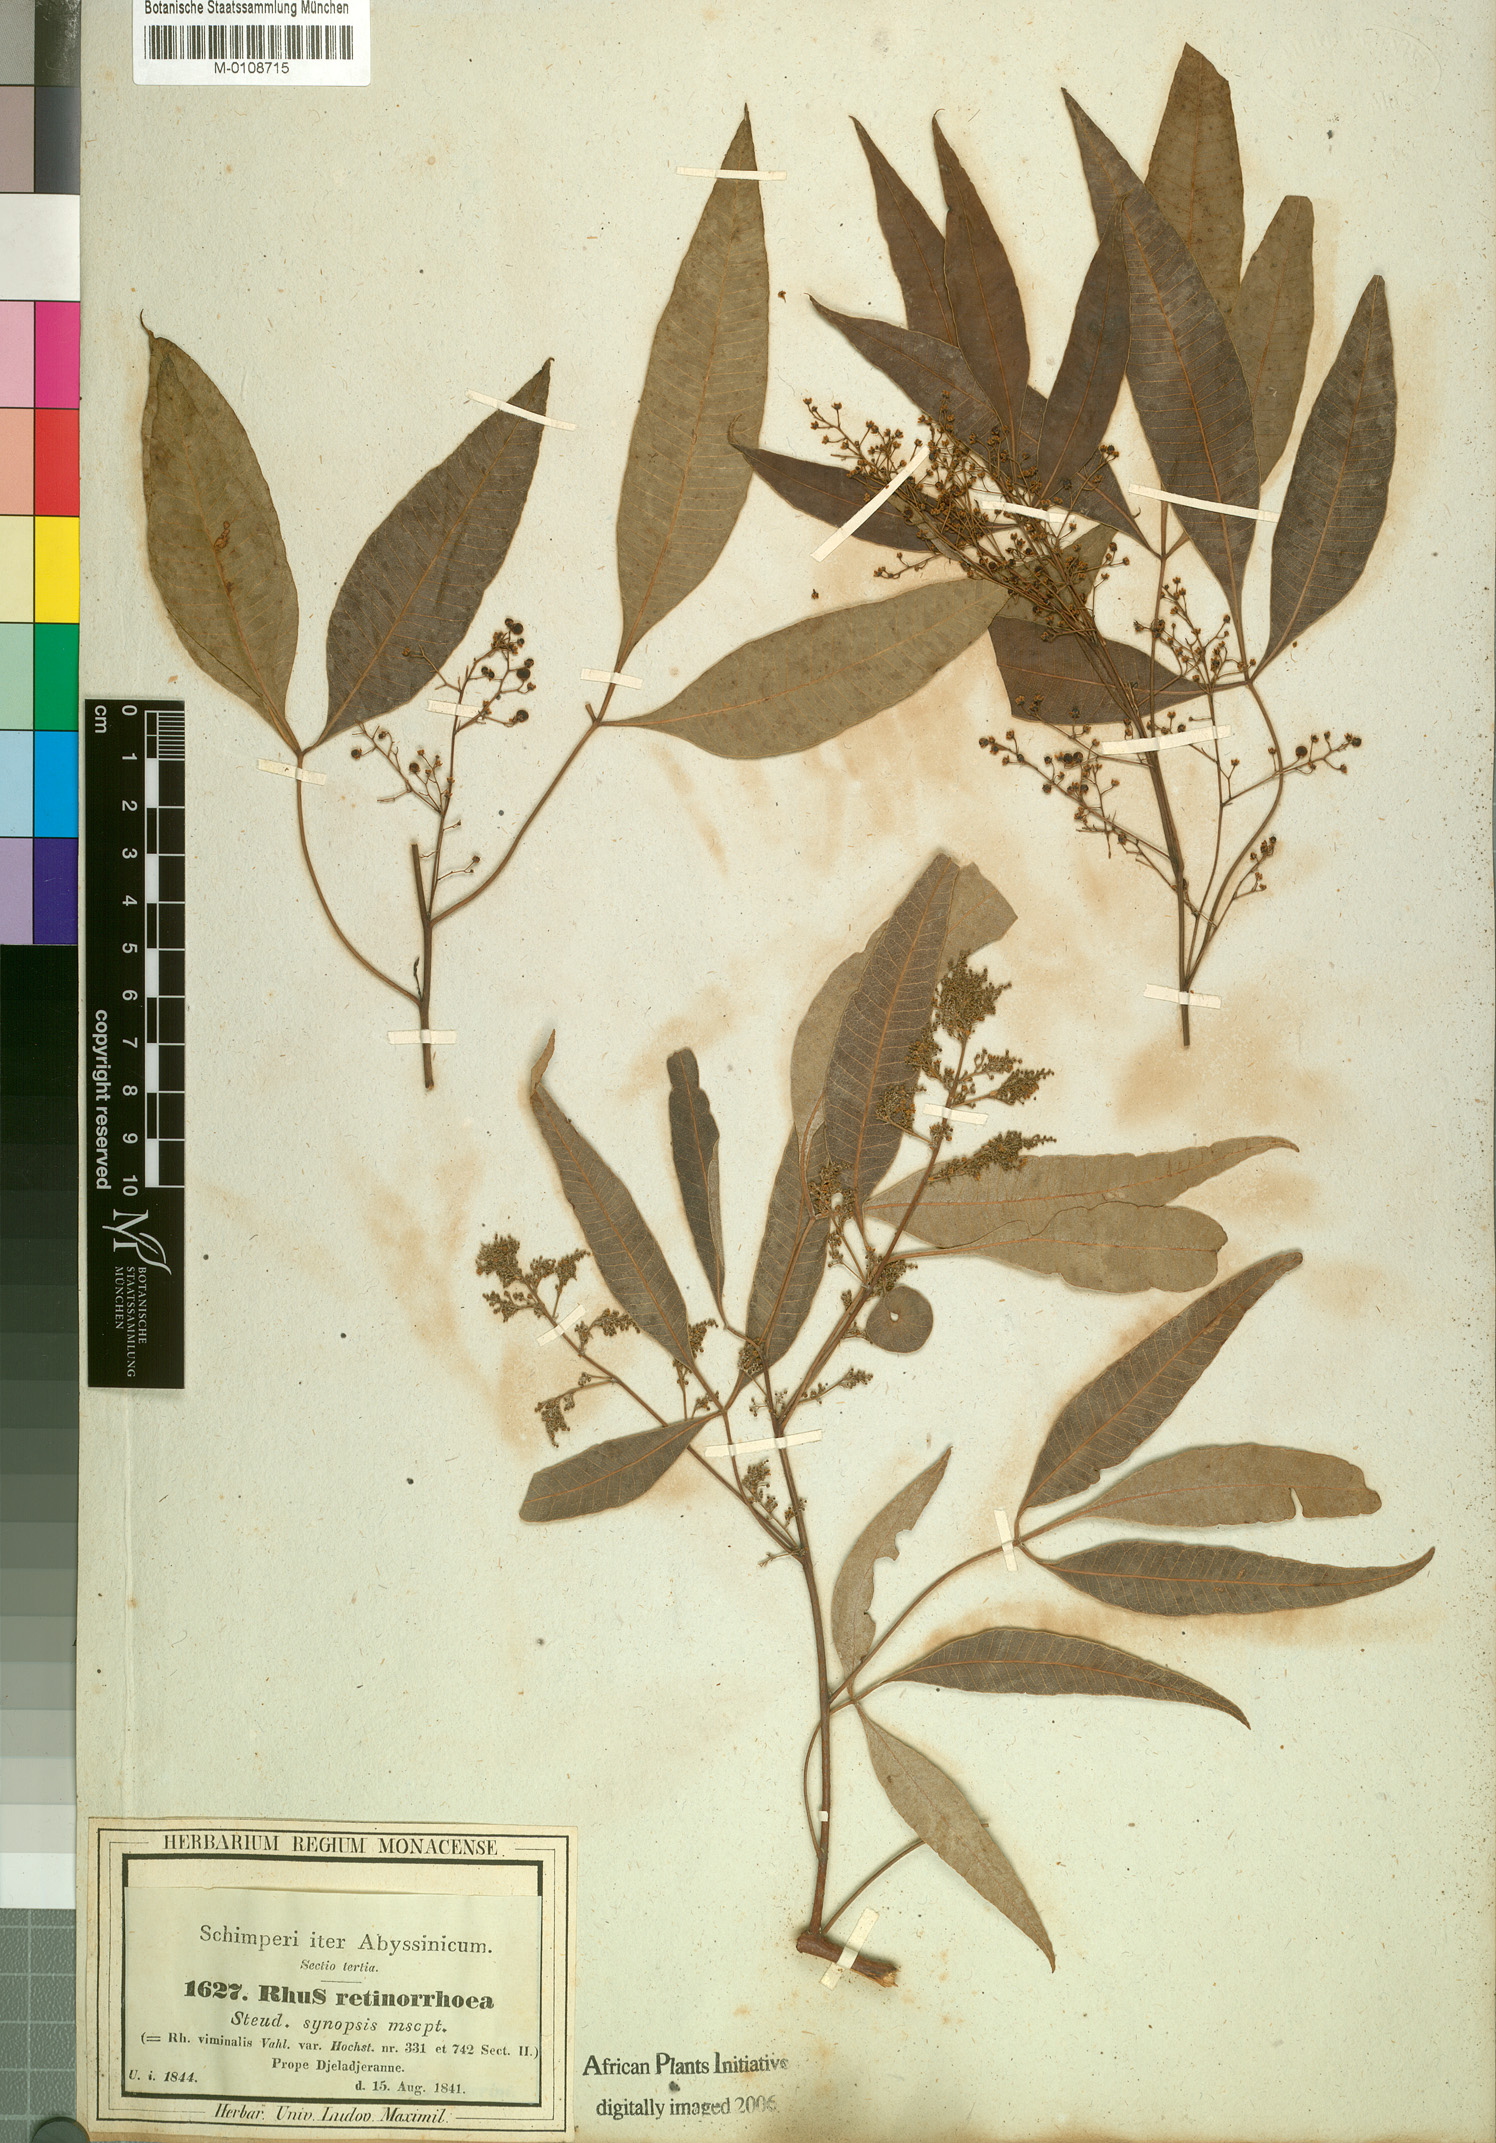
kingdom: Plantae
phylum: Tracheophyta
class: Magnoliopsida
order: Sapindales
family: Anacardiaceae
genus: Searsia
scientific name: Searsia laevigata
